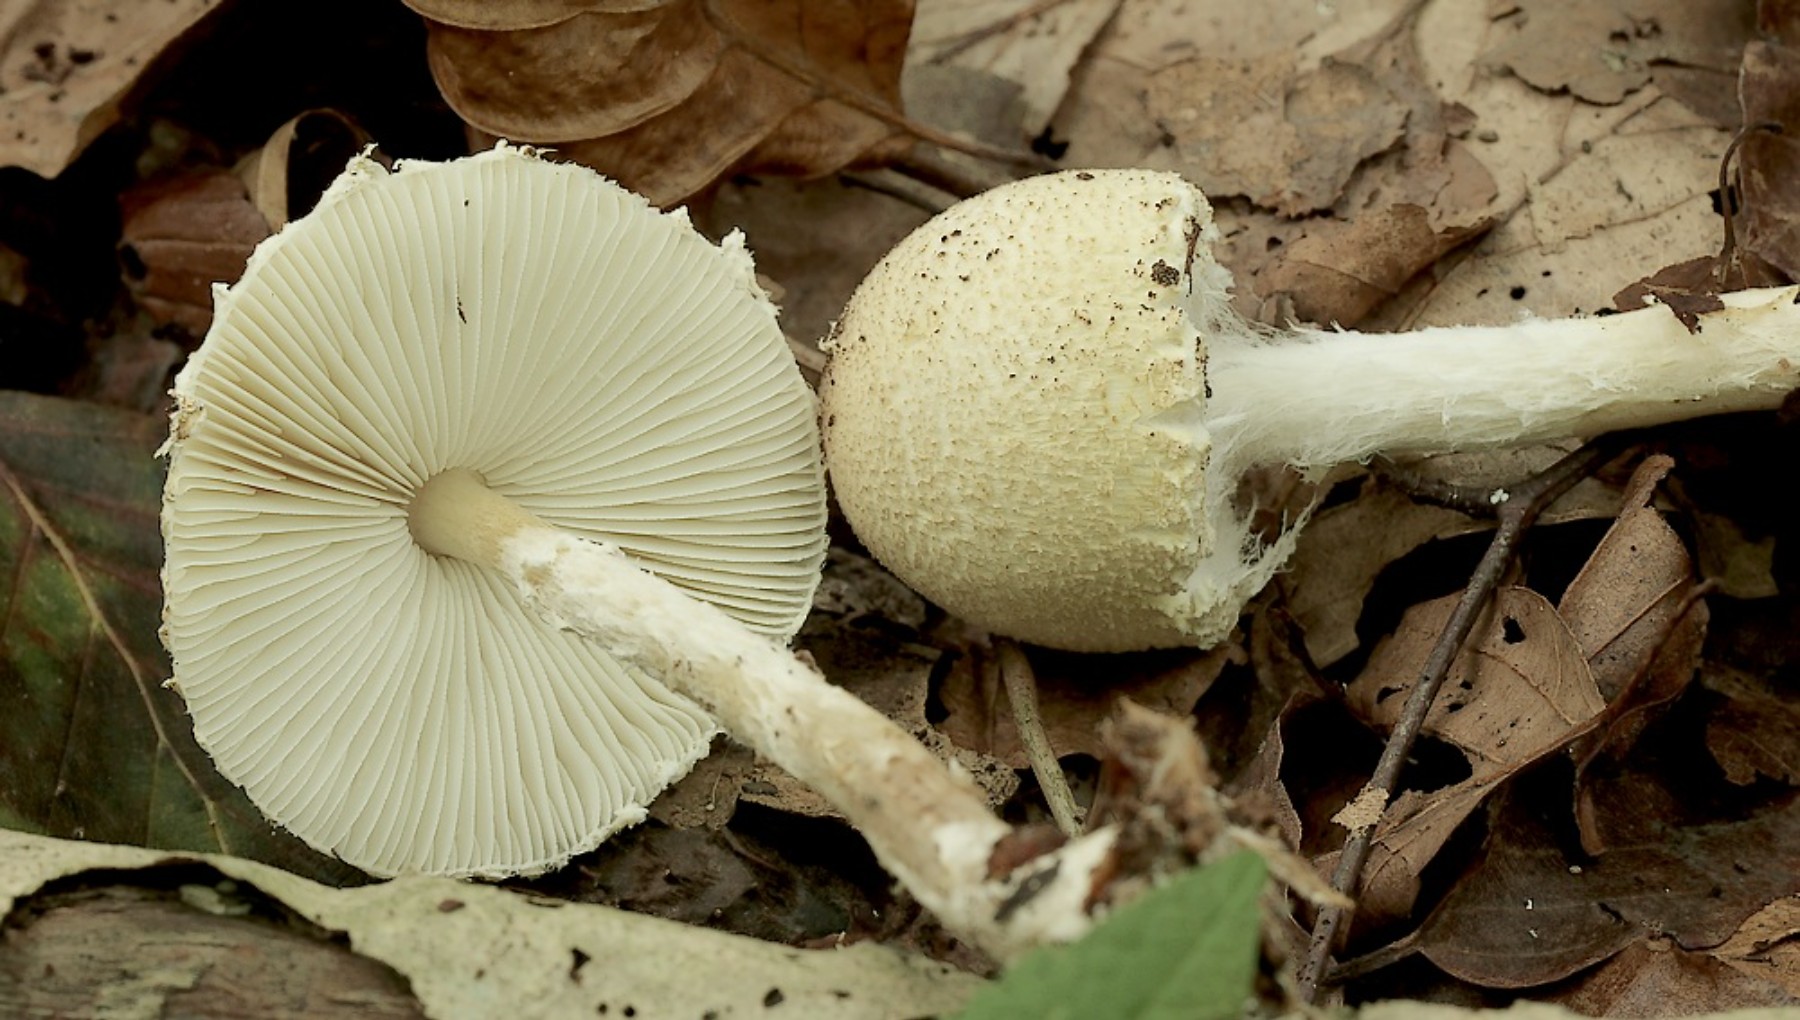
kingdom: Fungi
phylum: Basidiomycota
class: Agaricomycetes
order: Agaricales
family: Agaricaceae
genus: Lepiota
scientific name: Lepiota clypeolaria
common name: flosset parasolhat
